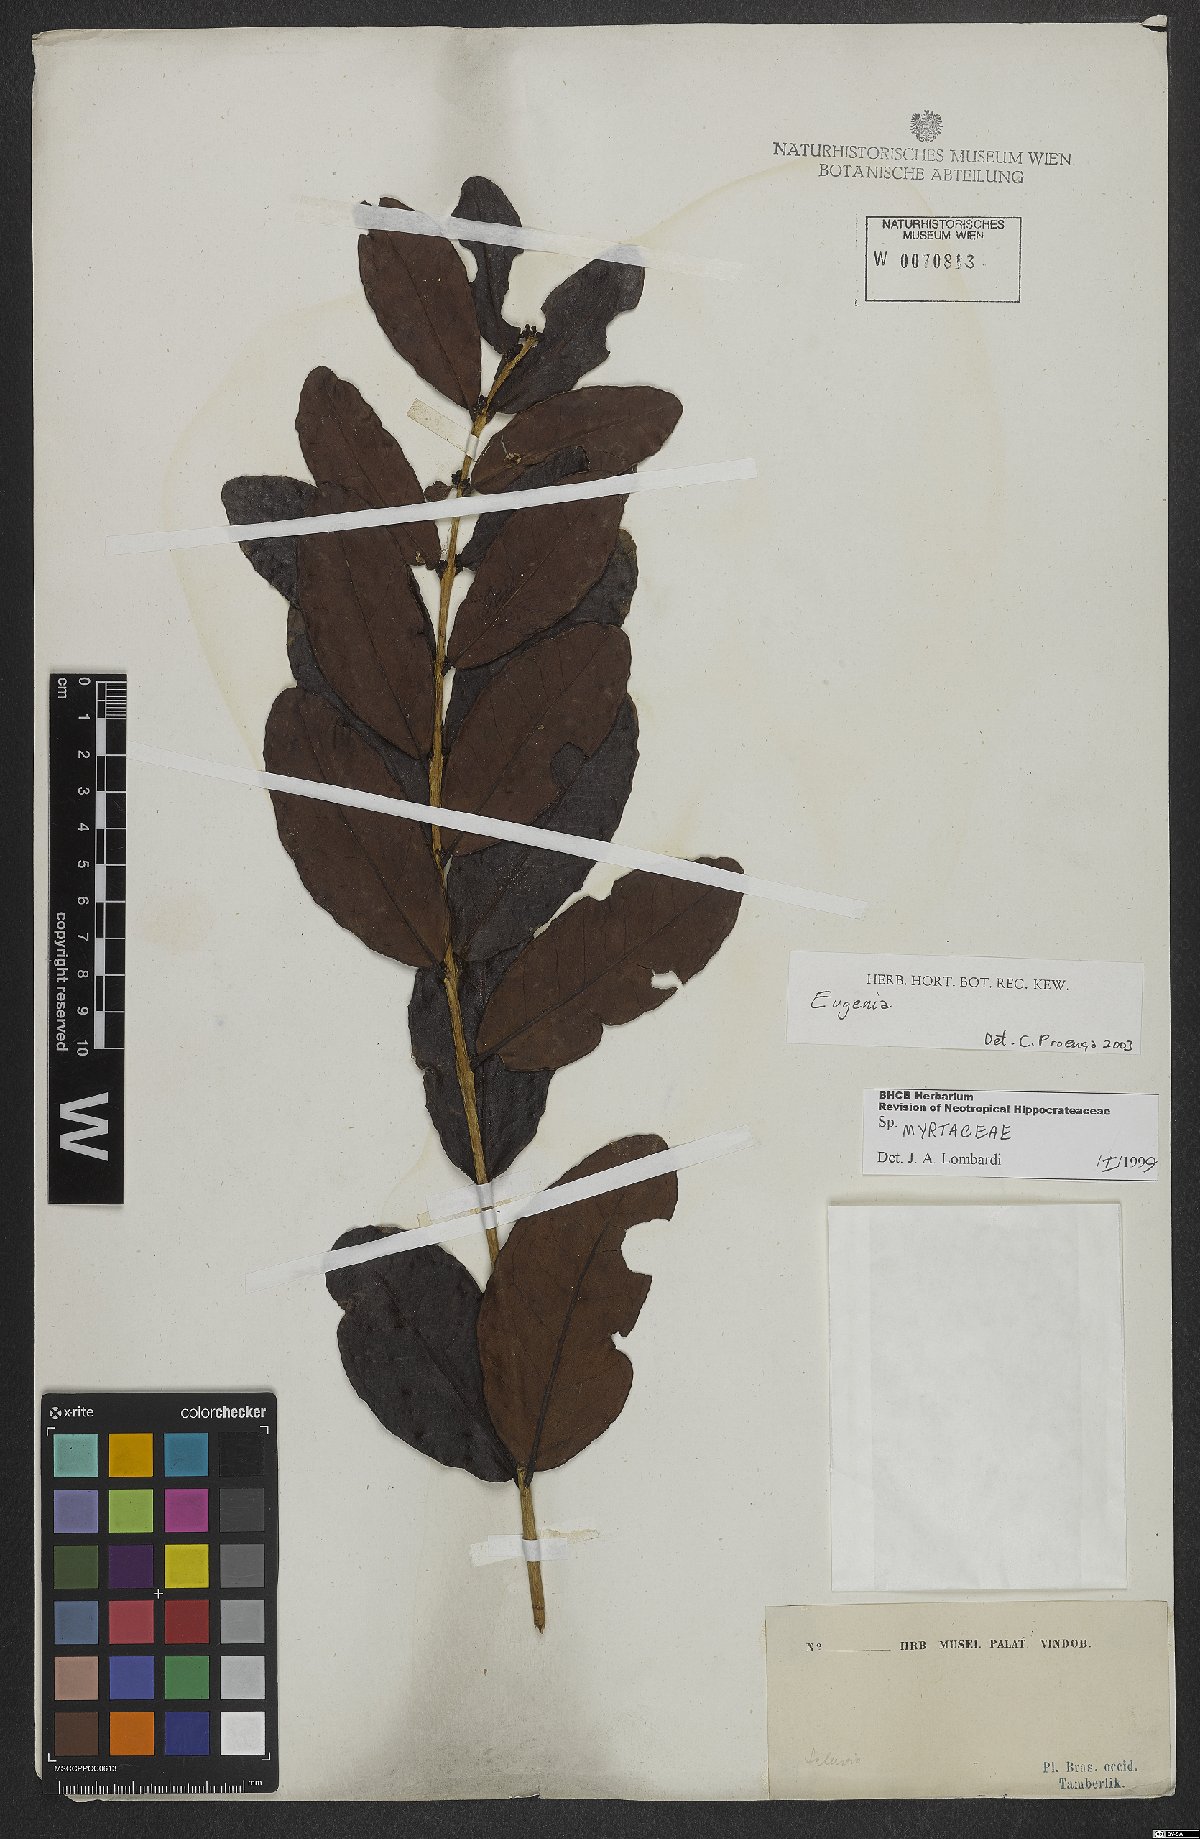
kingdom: Plantae
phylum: Tracheophyta
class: Magnoliopsida
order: Myrtales
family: Myrtaceae
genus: Eugenia
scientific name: Eugenia
